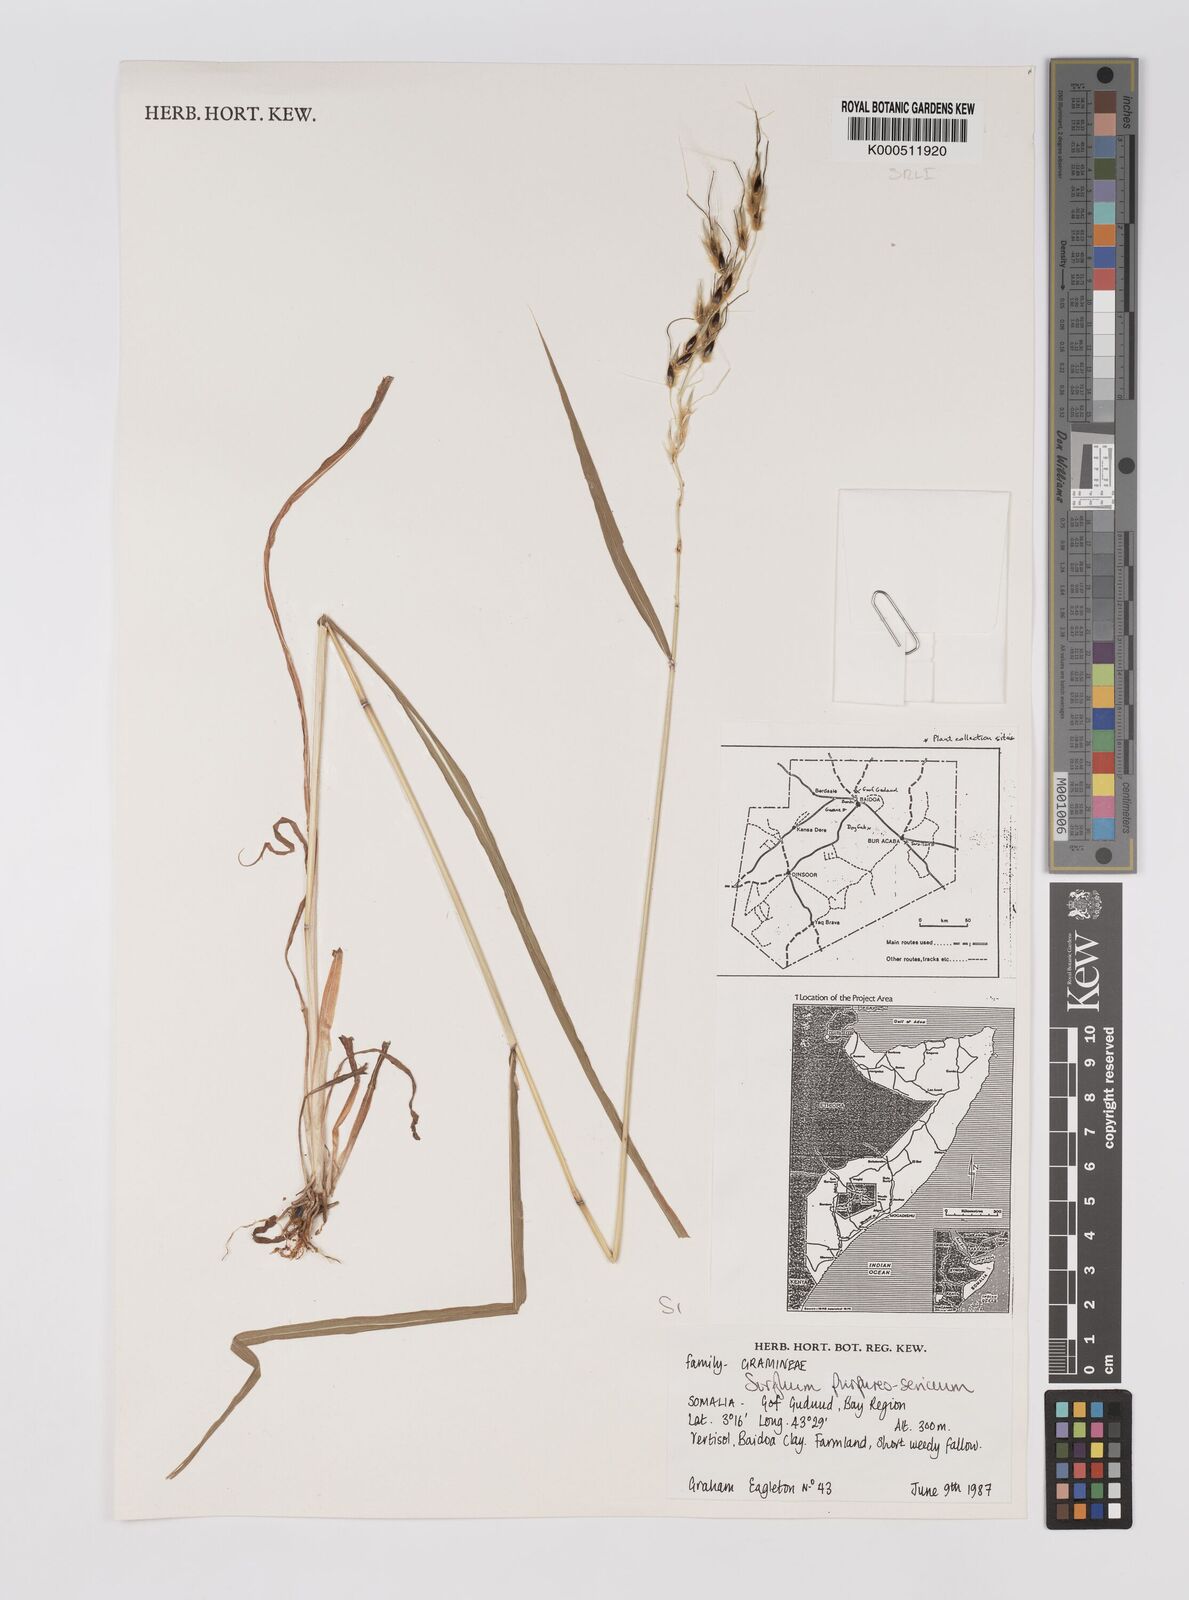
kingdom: Plantae
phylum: Tracheophyta
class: Liliopsida
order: Poales
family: Poaceae
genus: Sarga
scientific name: Sarga purpureosericea
